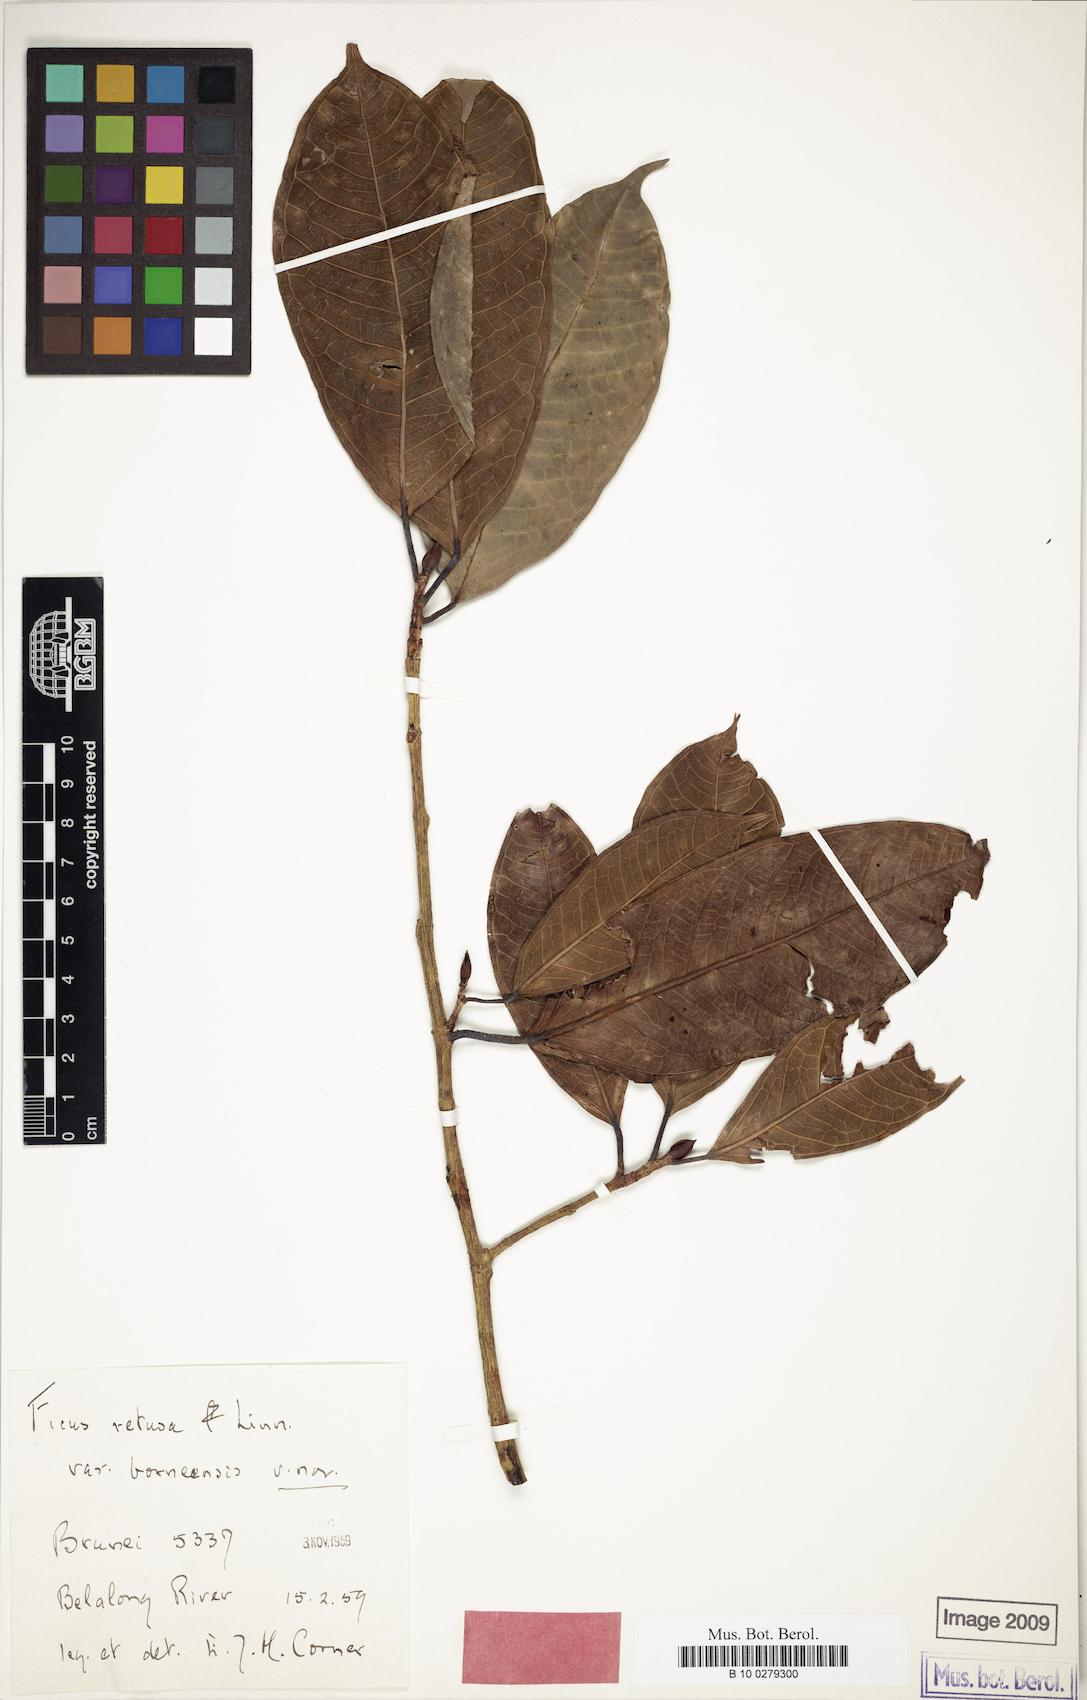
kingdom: Plantae
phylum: Tracheophyta
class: Magnoliopsida
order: Rosales
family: Moraceae
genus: Ficus
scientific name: Ficus retusa
